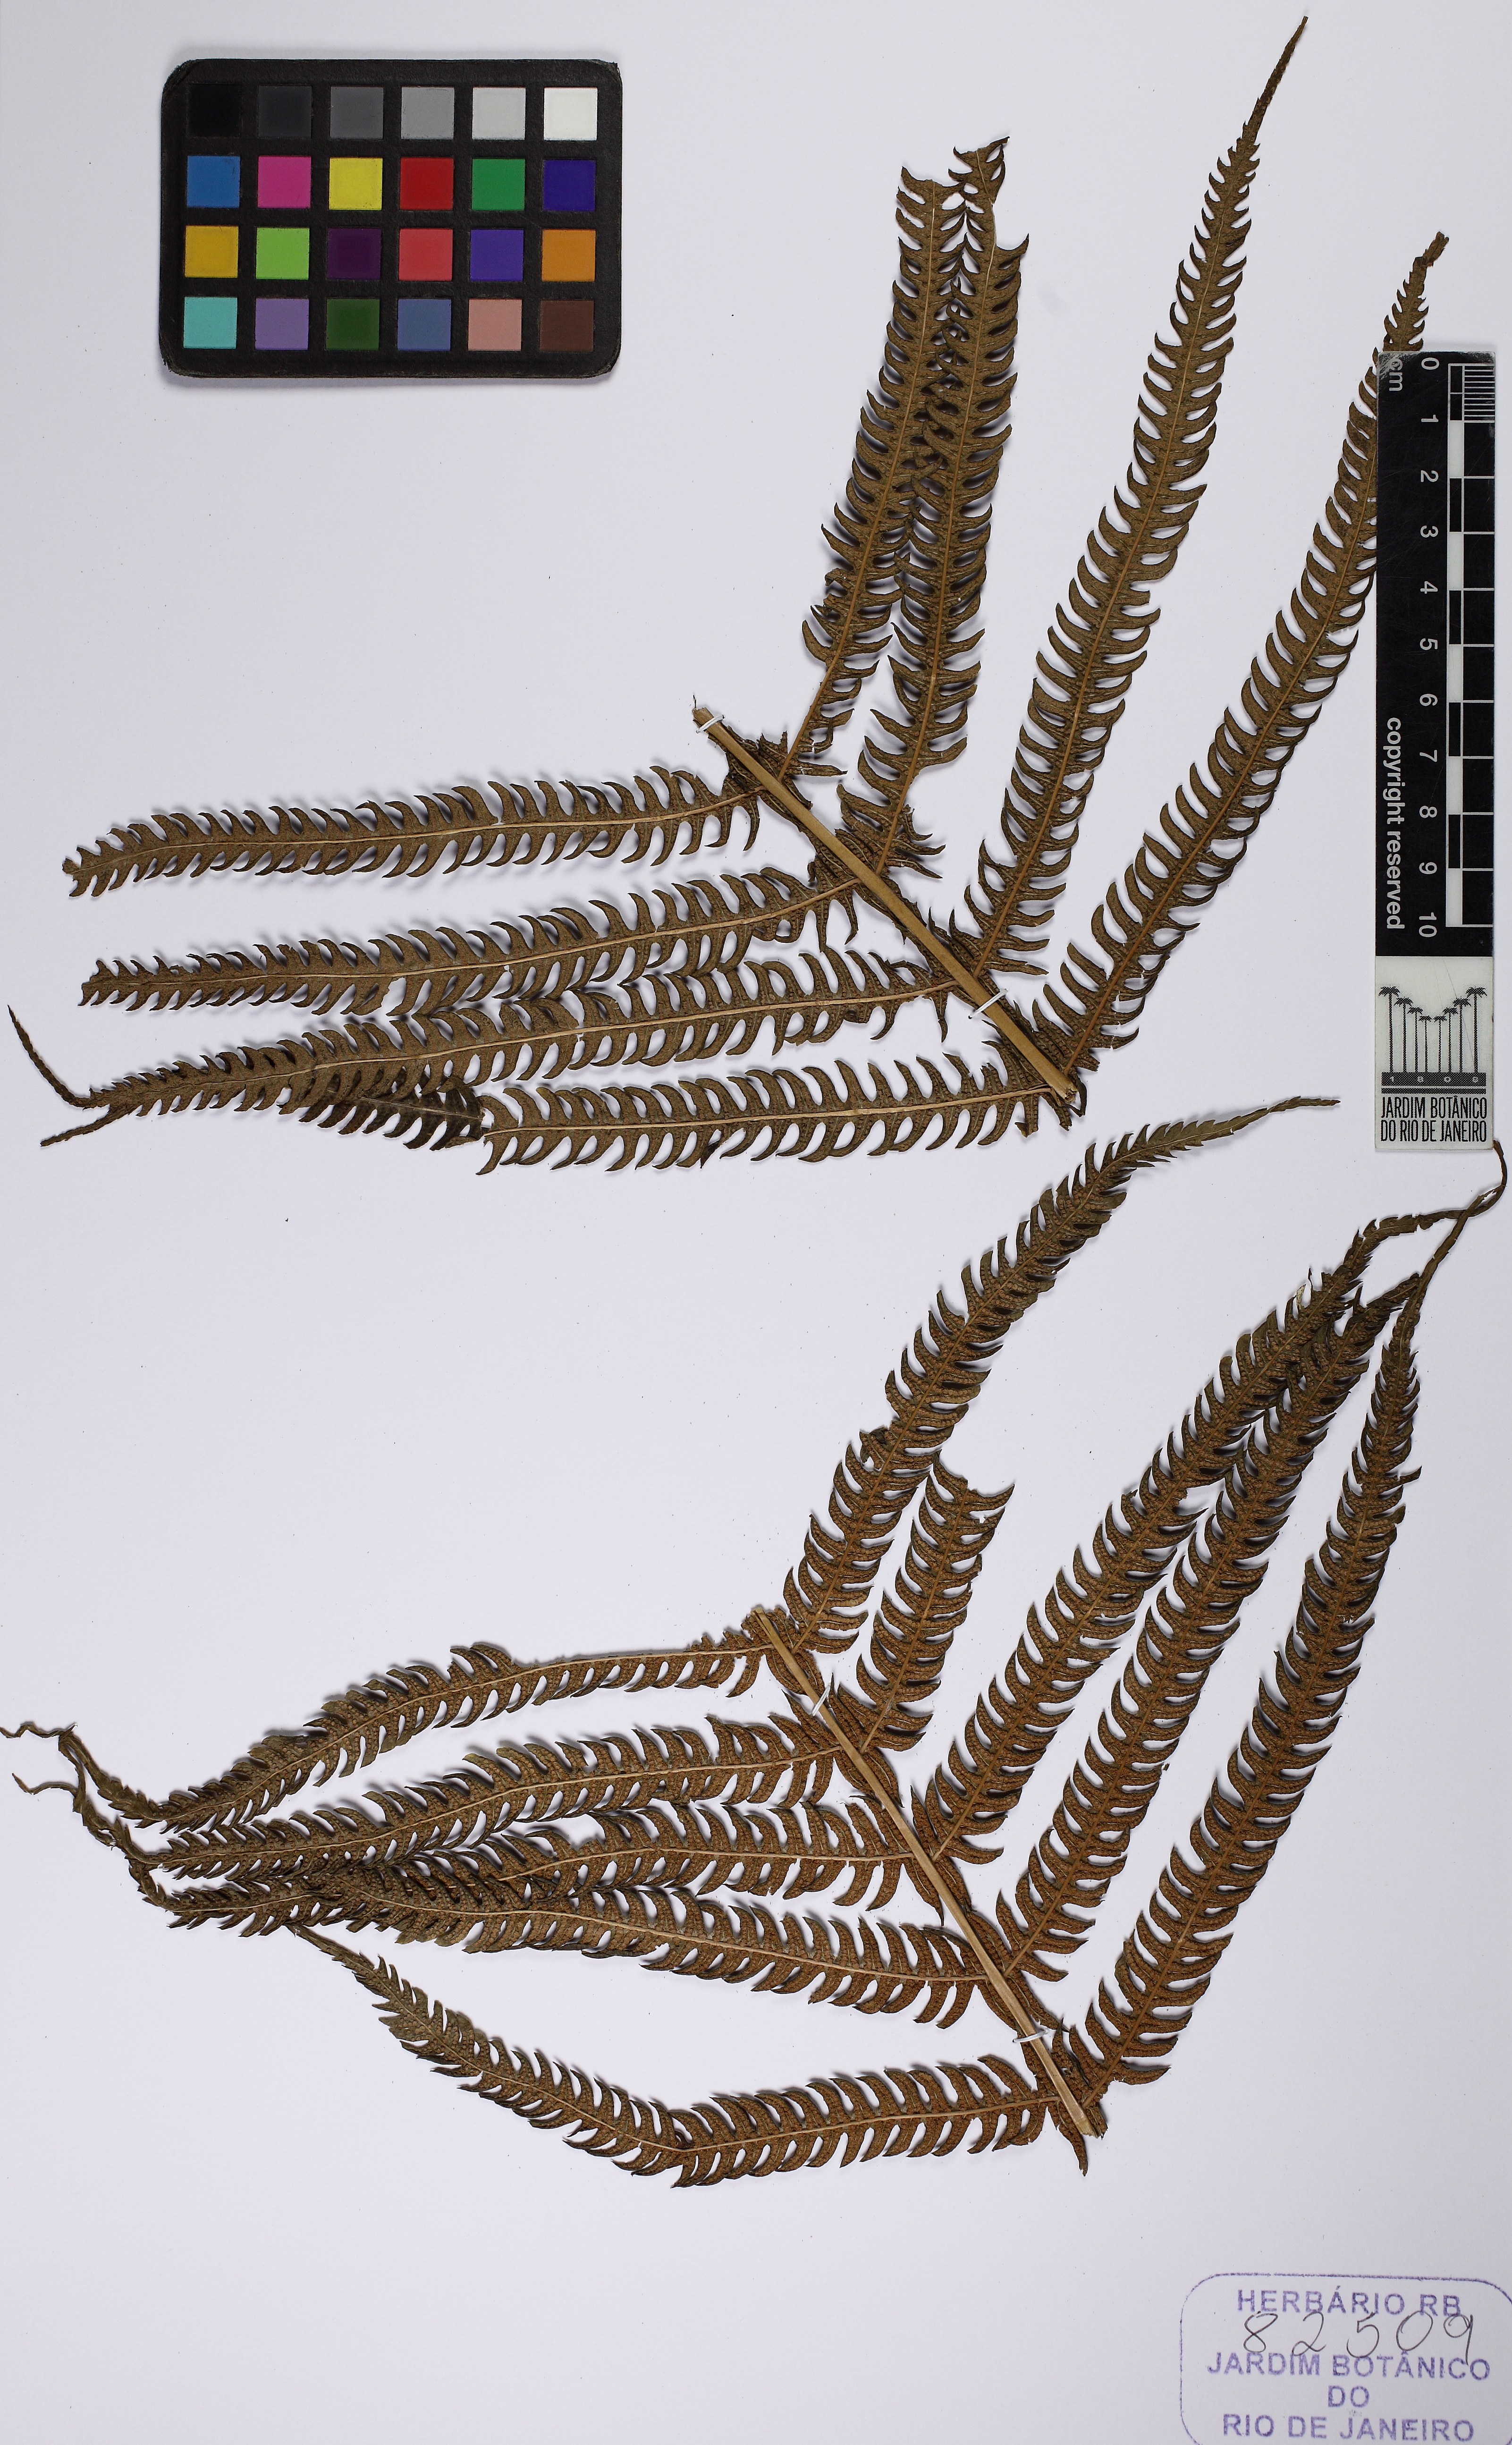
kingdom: Plantae
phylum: Tracheophyta
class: Polypodiopsida
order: Polypodiales
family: Thelypteridaceae
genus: Pelazoneuron
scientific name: Pelazoneuron patens
